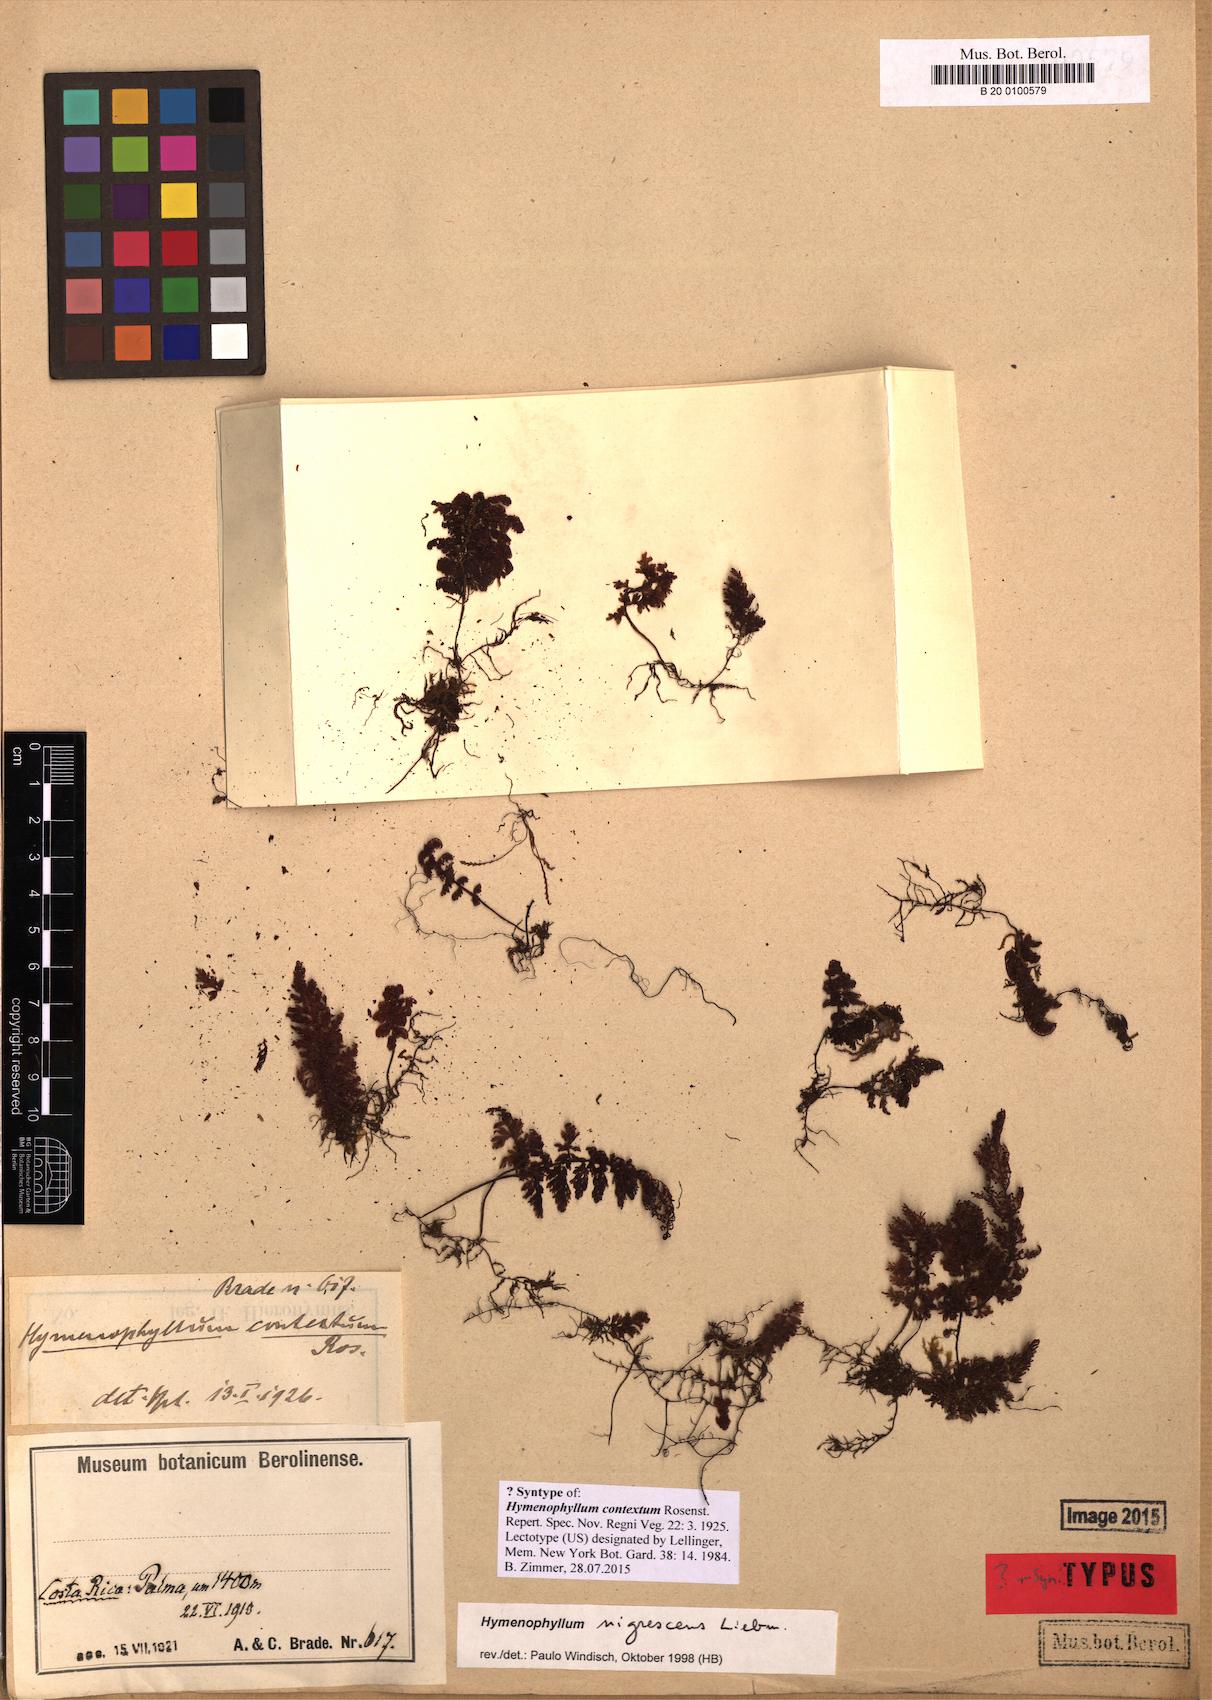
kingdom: Plantae
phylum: Tracheophyta
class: Polypodiopsida
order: Hymenophyllales
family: Hymenophyllaceae
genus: Hymenophyllum
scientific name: Hymenophyllum myriocarpum
